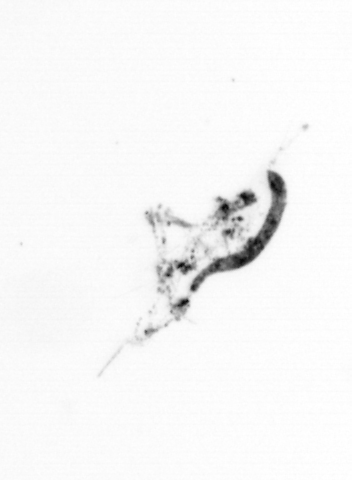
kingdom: Animalia
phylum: Arthropoda
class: Copepoda
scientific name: Copepoda
